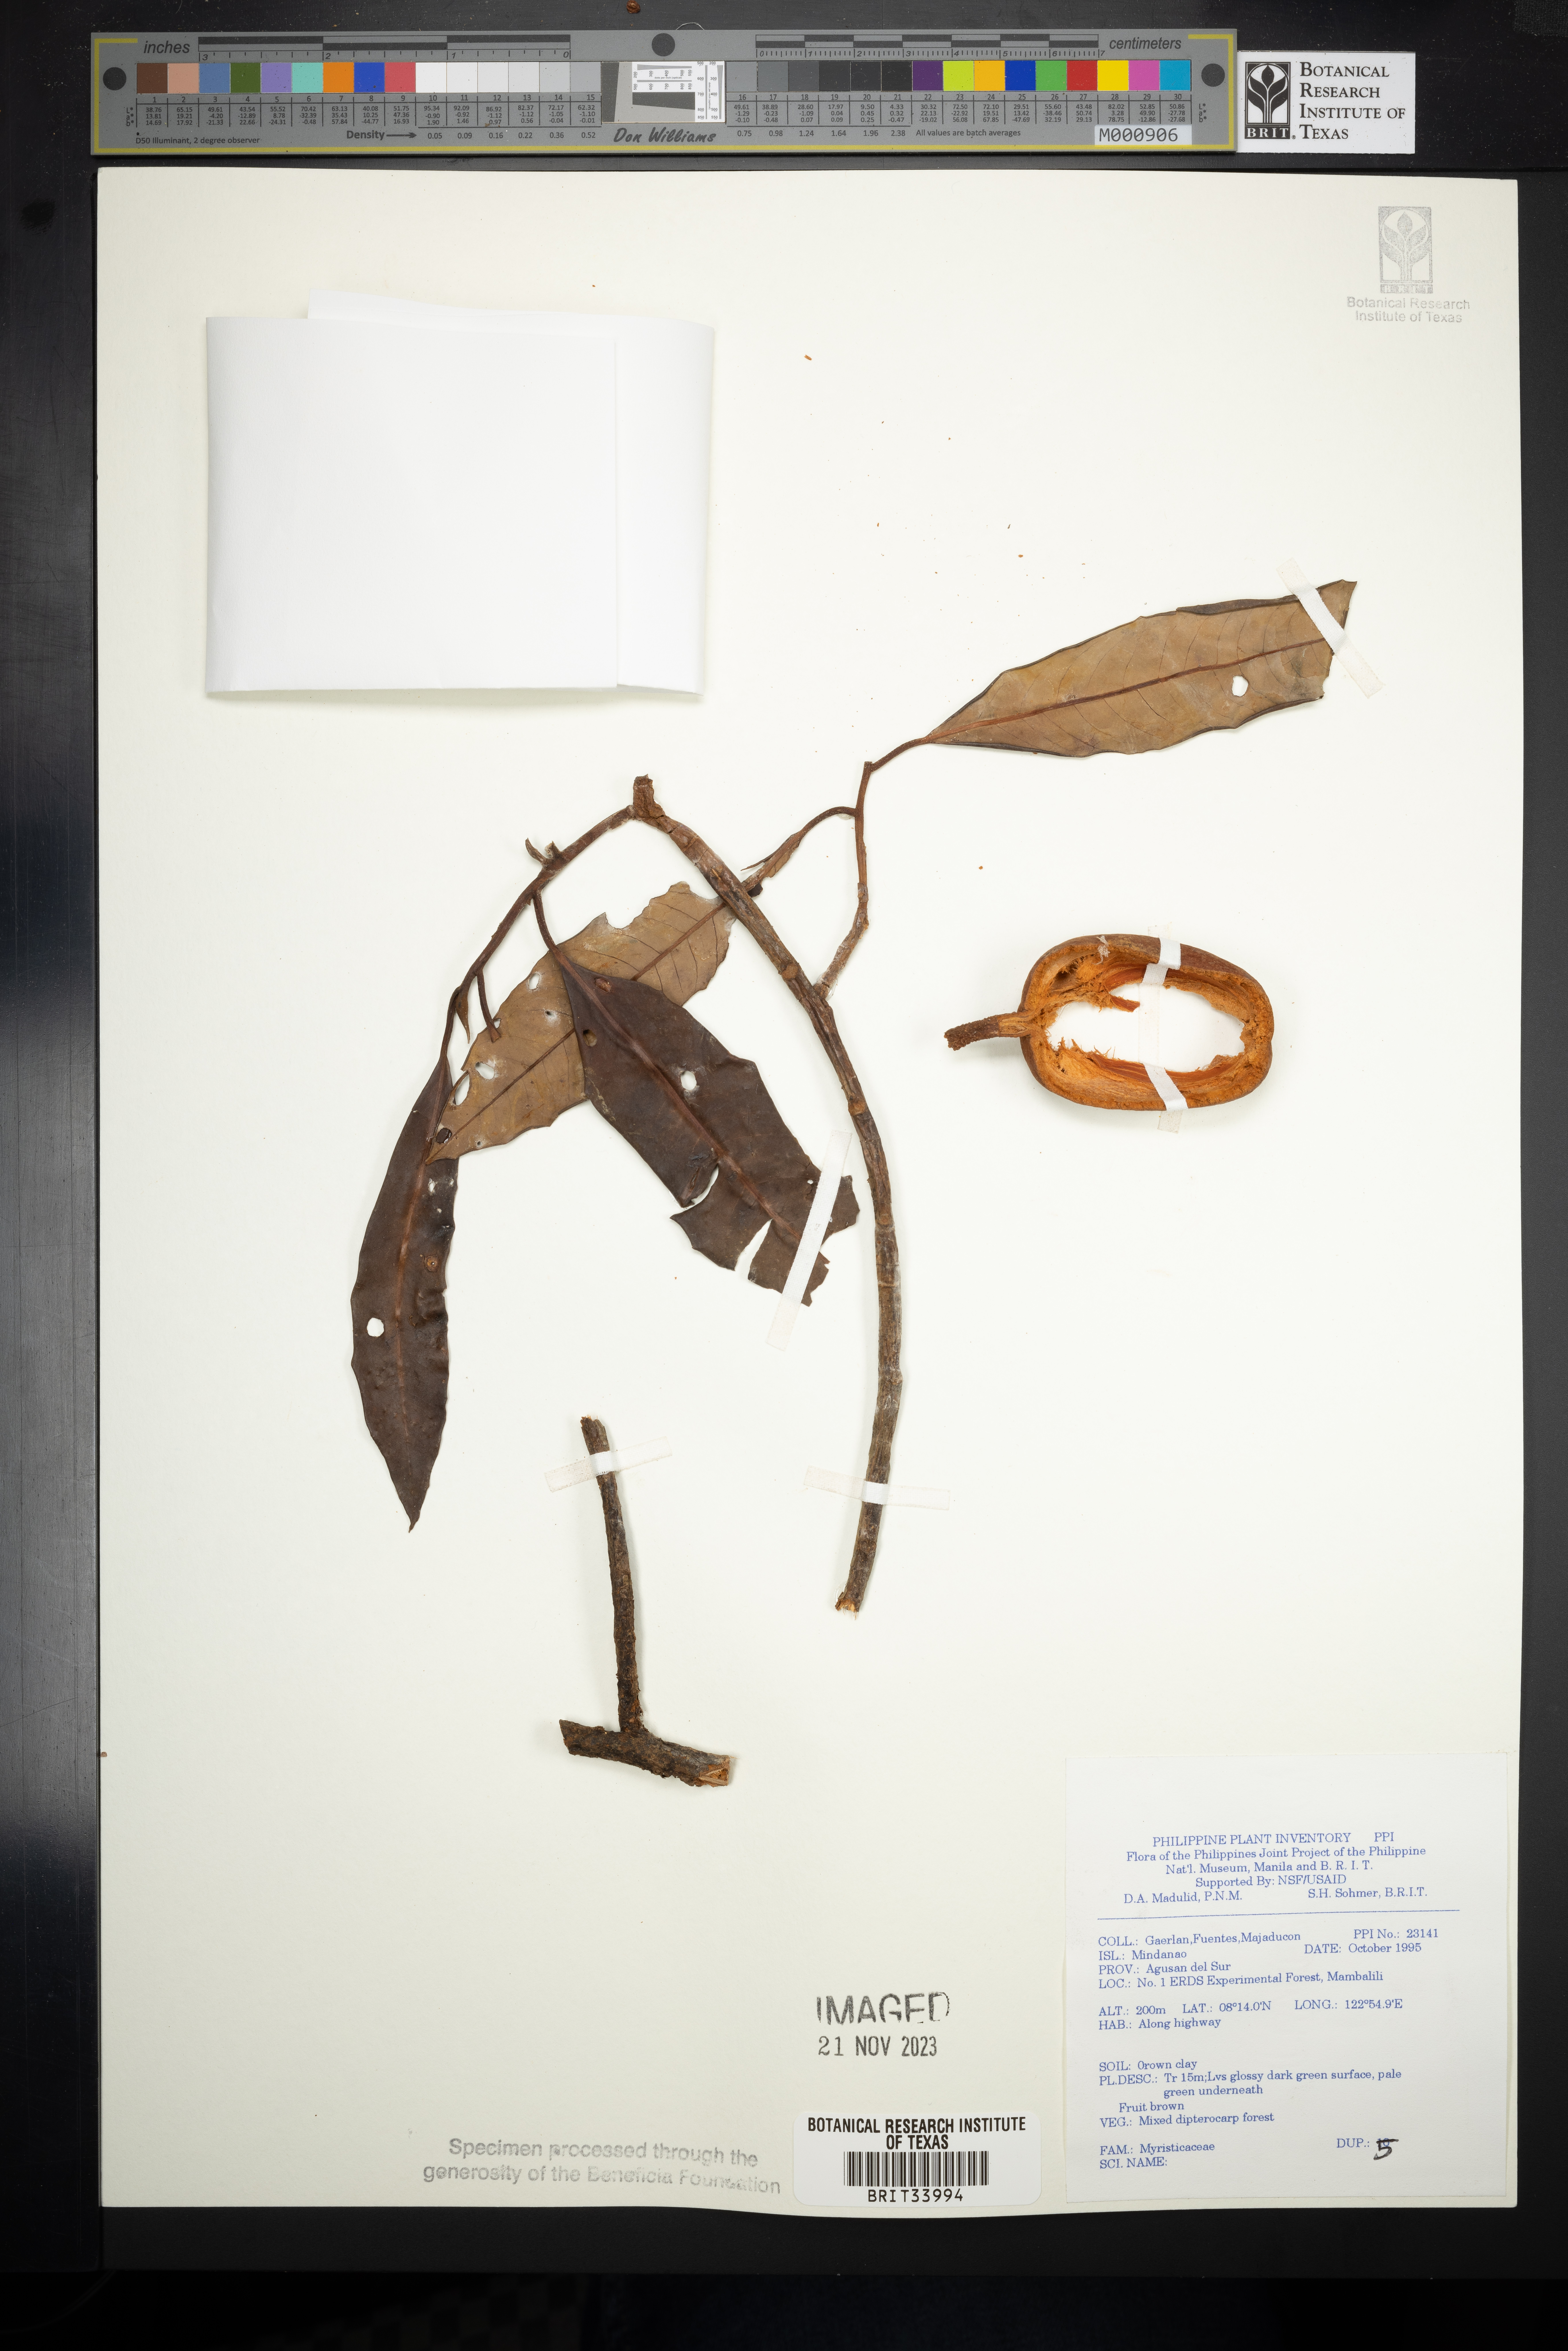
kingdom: Plantae
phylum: Tracheophyta
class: Magnoliopsida
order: Magnoliales
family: Myristicaceae
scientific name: Myristicaceae
